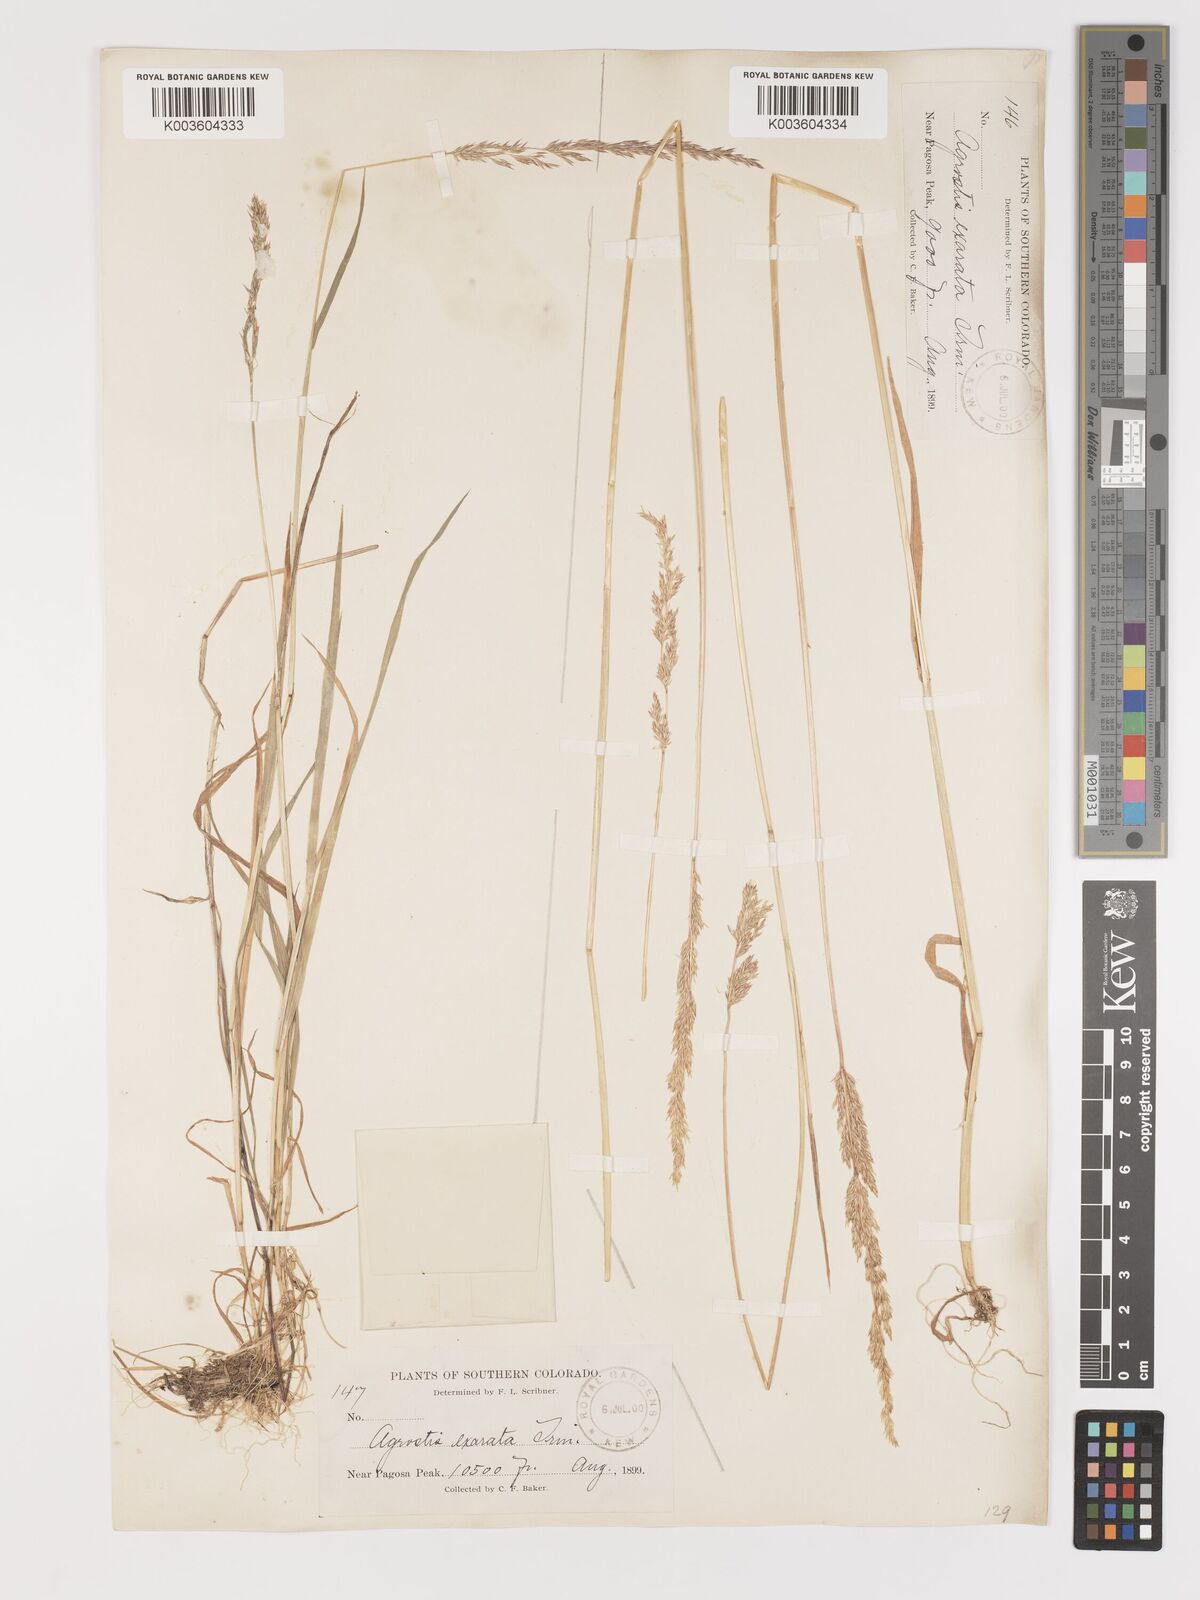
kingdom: Plantae
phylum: Tracheophyta
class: Liliopsida
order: Poales
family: Poaceae
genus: Agrostis
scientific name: Agrostis exarata
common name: Spike bent
